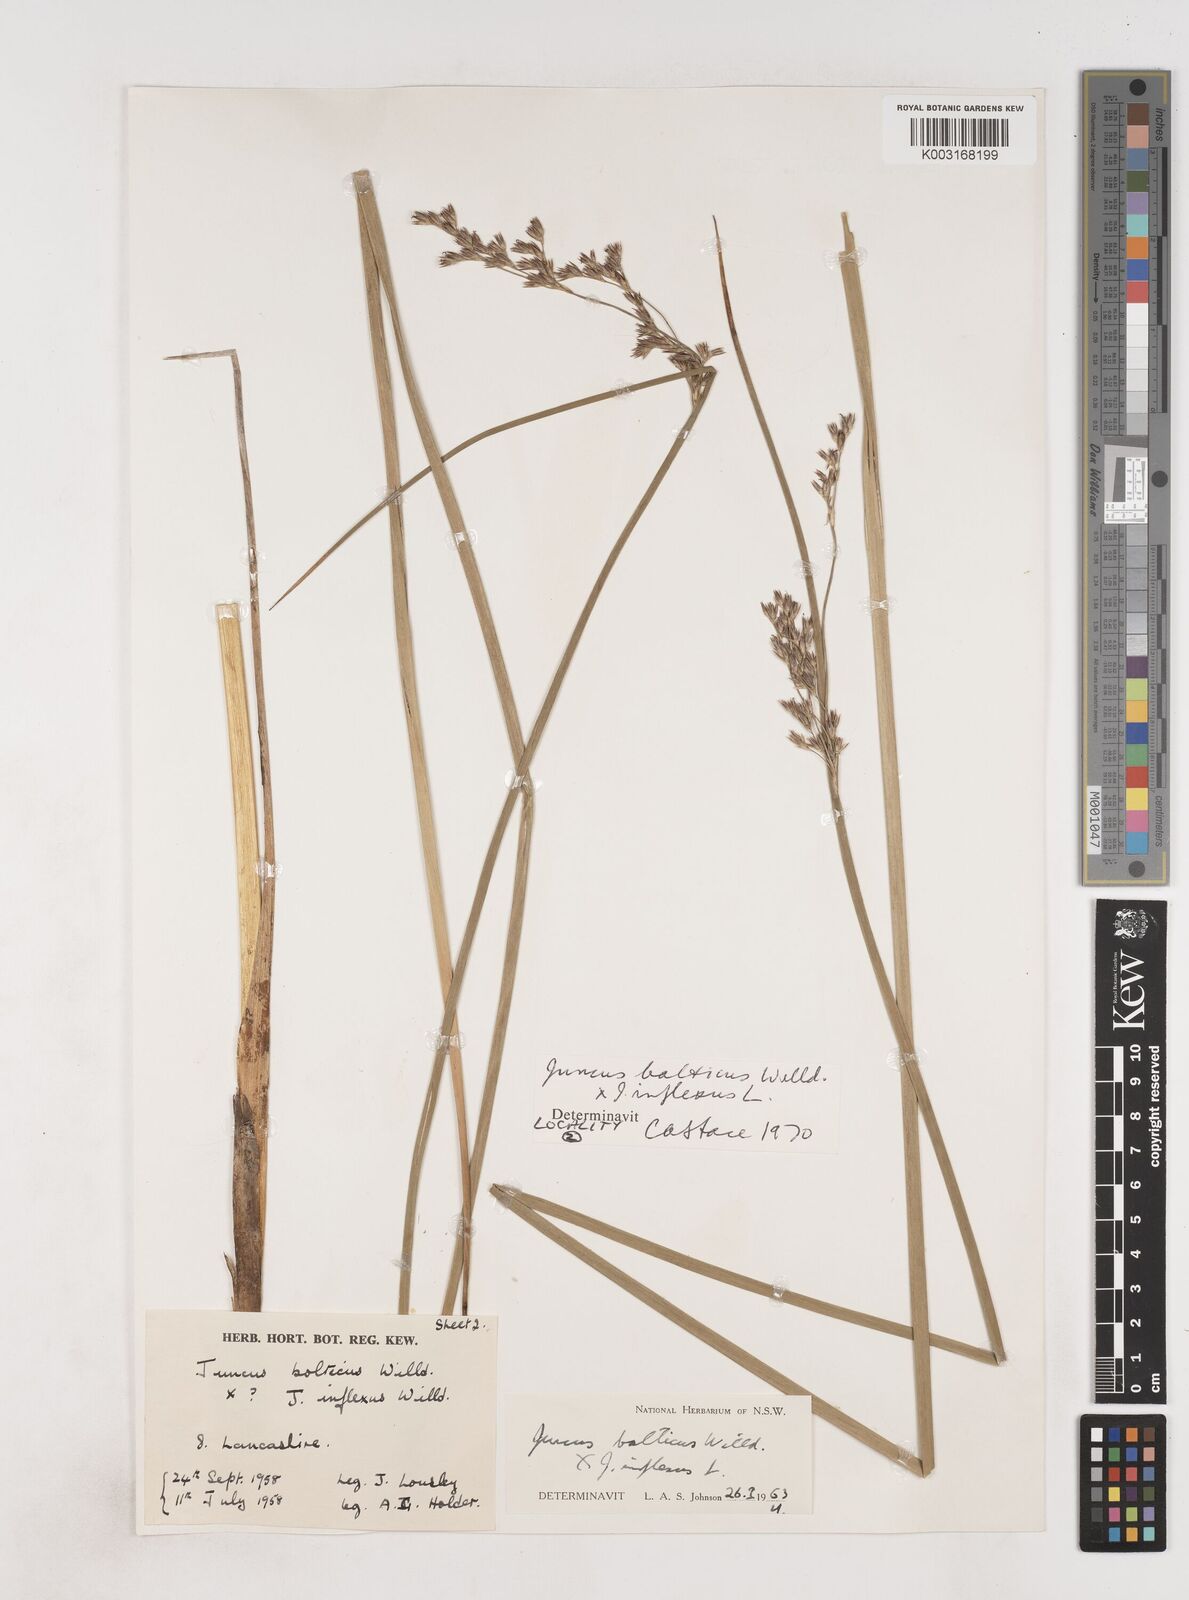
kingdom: Plantae
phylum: Tracheophyta
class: Liliopsida
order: Poales
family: Juncaceae
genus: Juncus
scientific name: Juncus balticus
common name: Baltic rush
